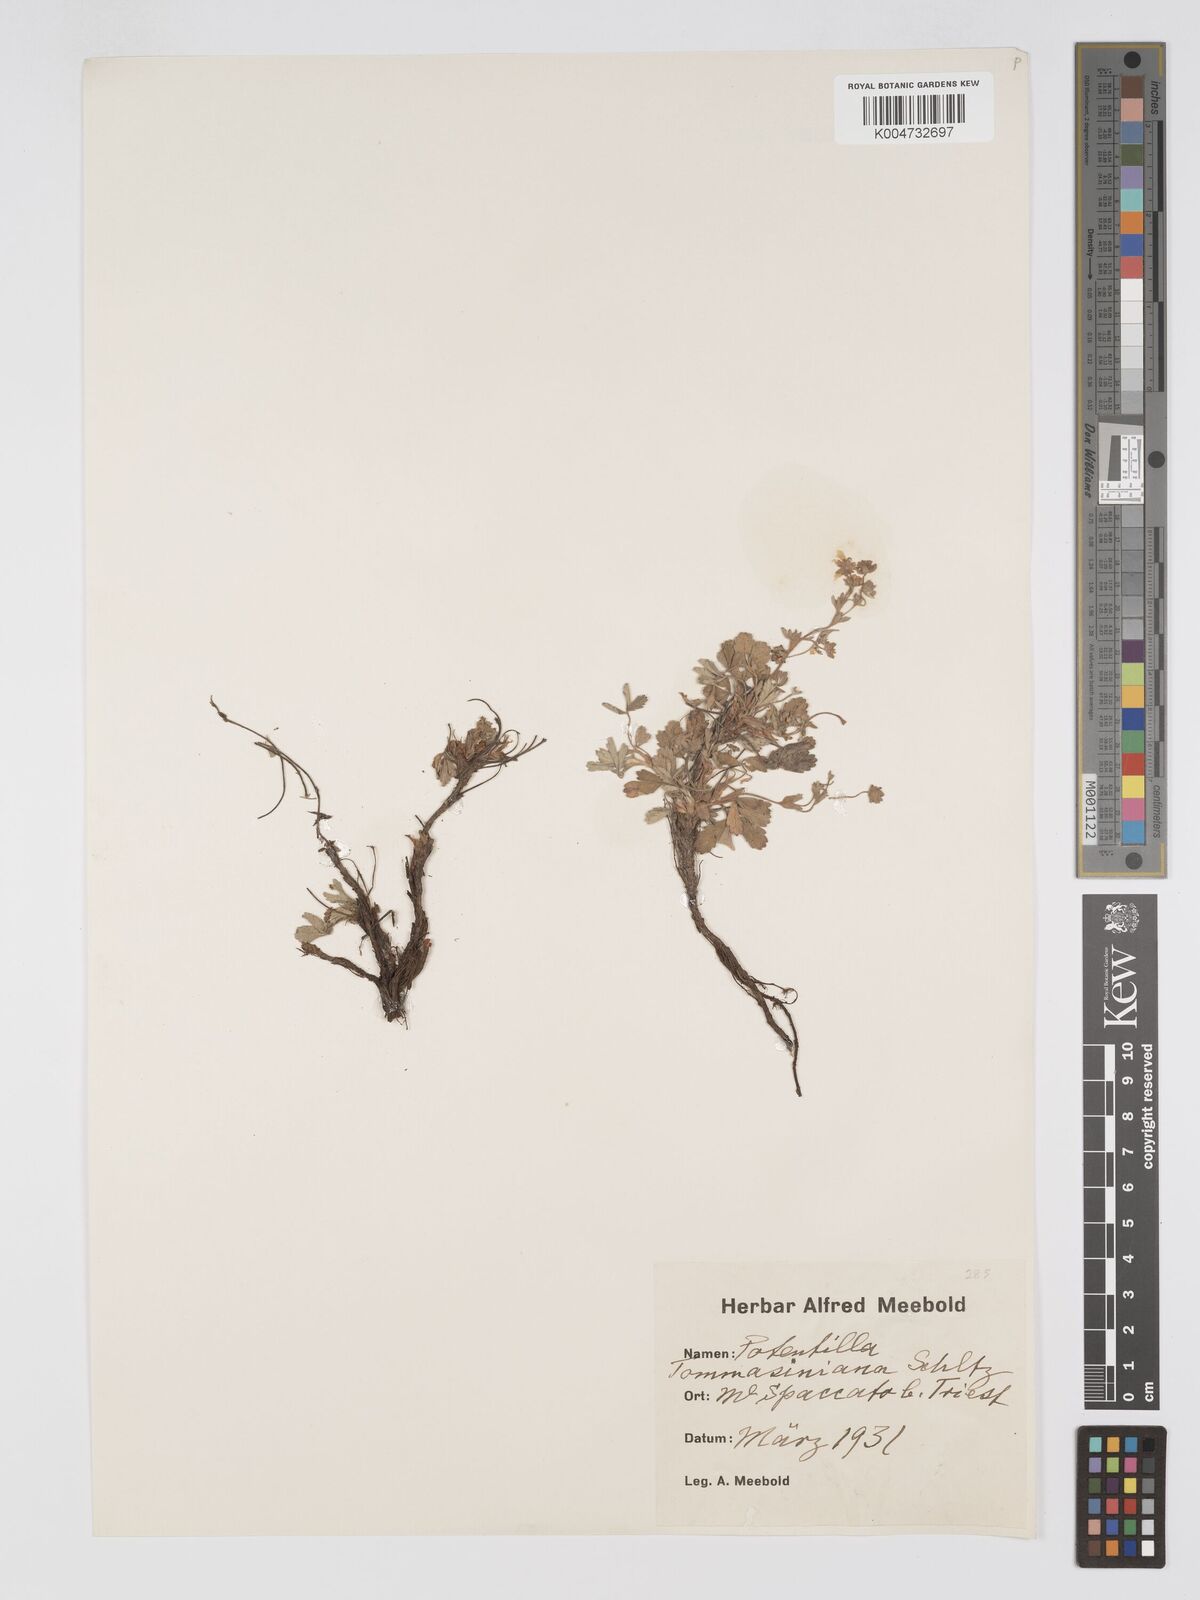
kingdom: Plantae
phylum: Tracheophyta
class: Magnoliopsida
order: Rosales
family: Rosaceae
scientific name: Rosaceae
